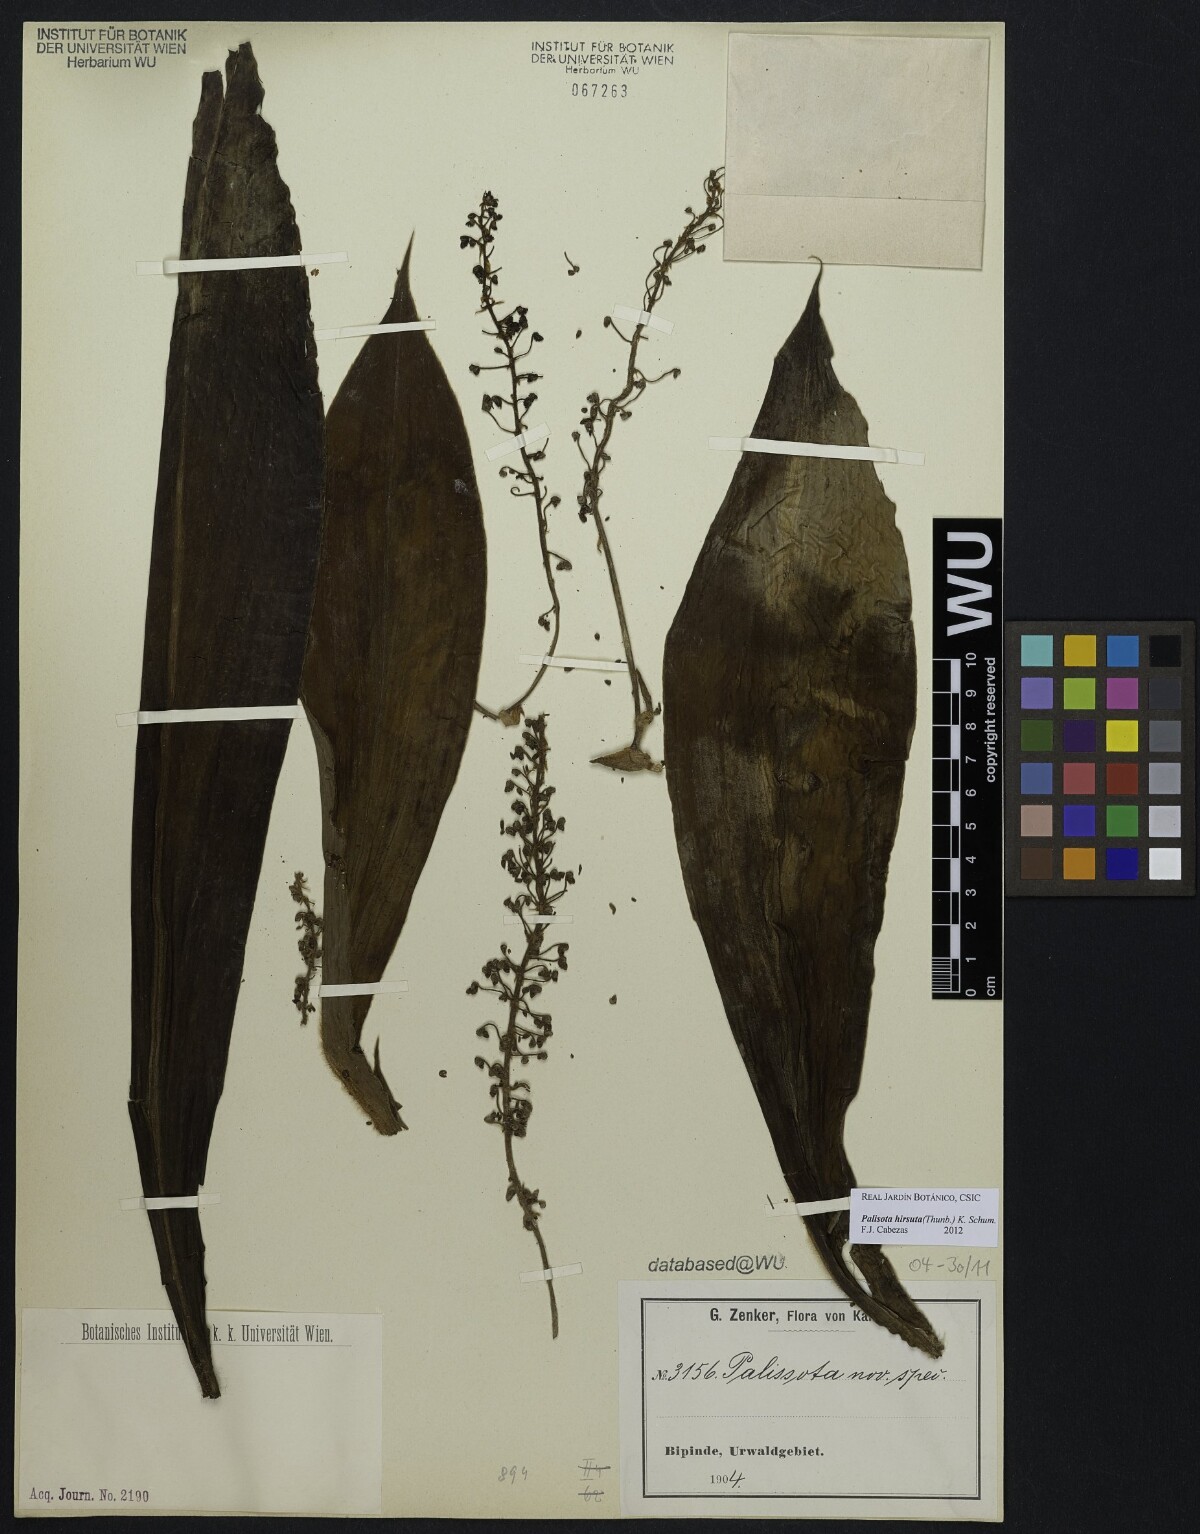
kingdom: Plantae
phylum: Tracheophyta
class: Liliopsida
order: Commelinales
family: Commelinaceae
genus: Palisota
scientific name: Palisota hirsuta
